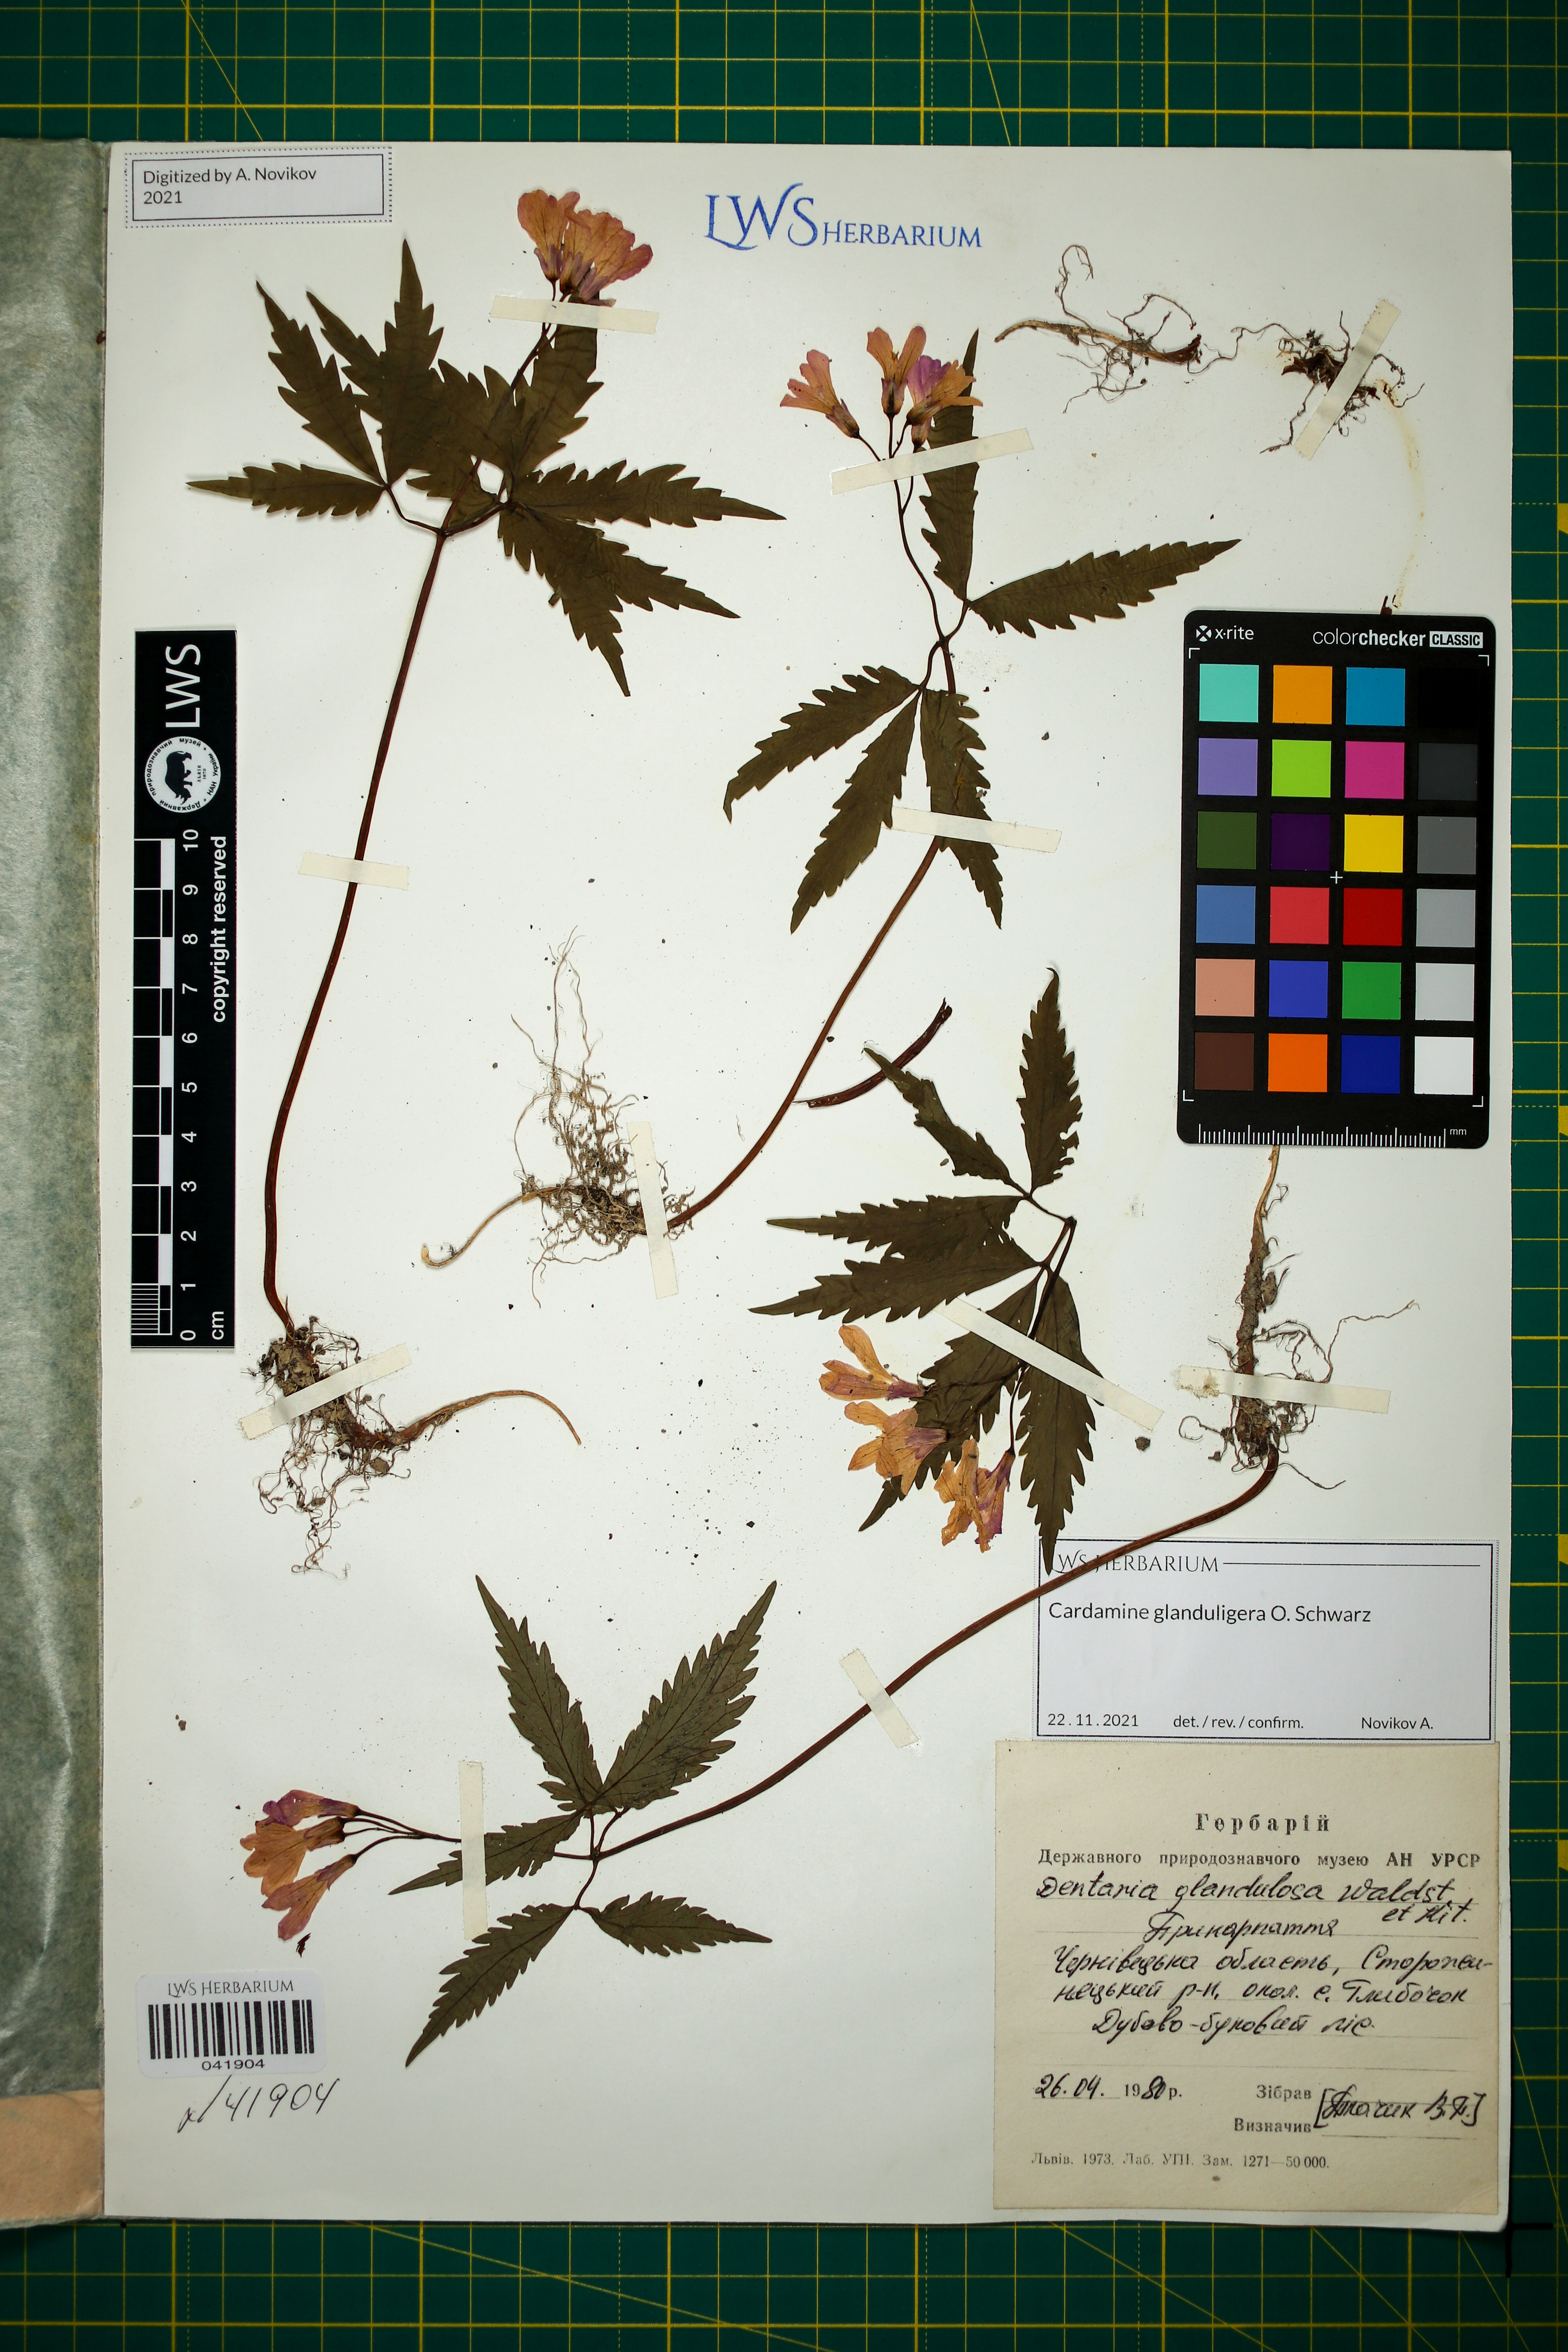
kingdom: Plantae
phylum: Tracheophyta
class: Magnoliopsida
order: Brassicales
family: Brassicaceae
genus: Cardamine
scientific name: Cardamine glanduligera
